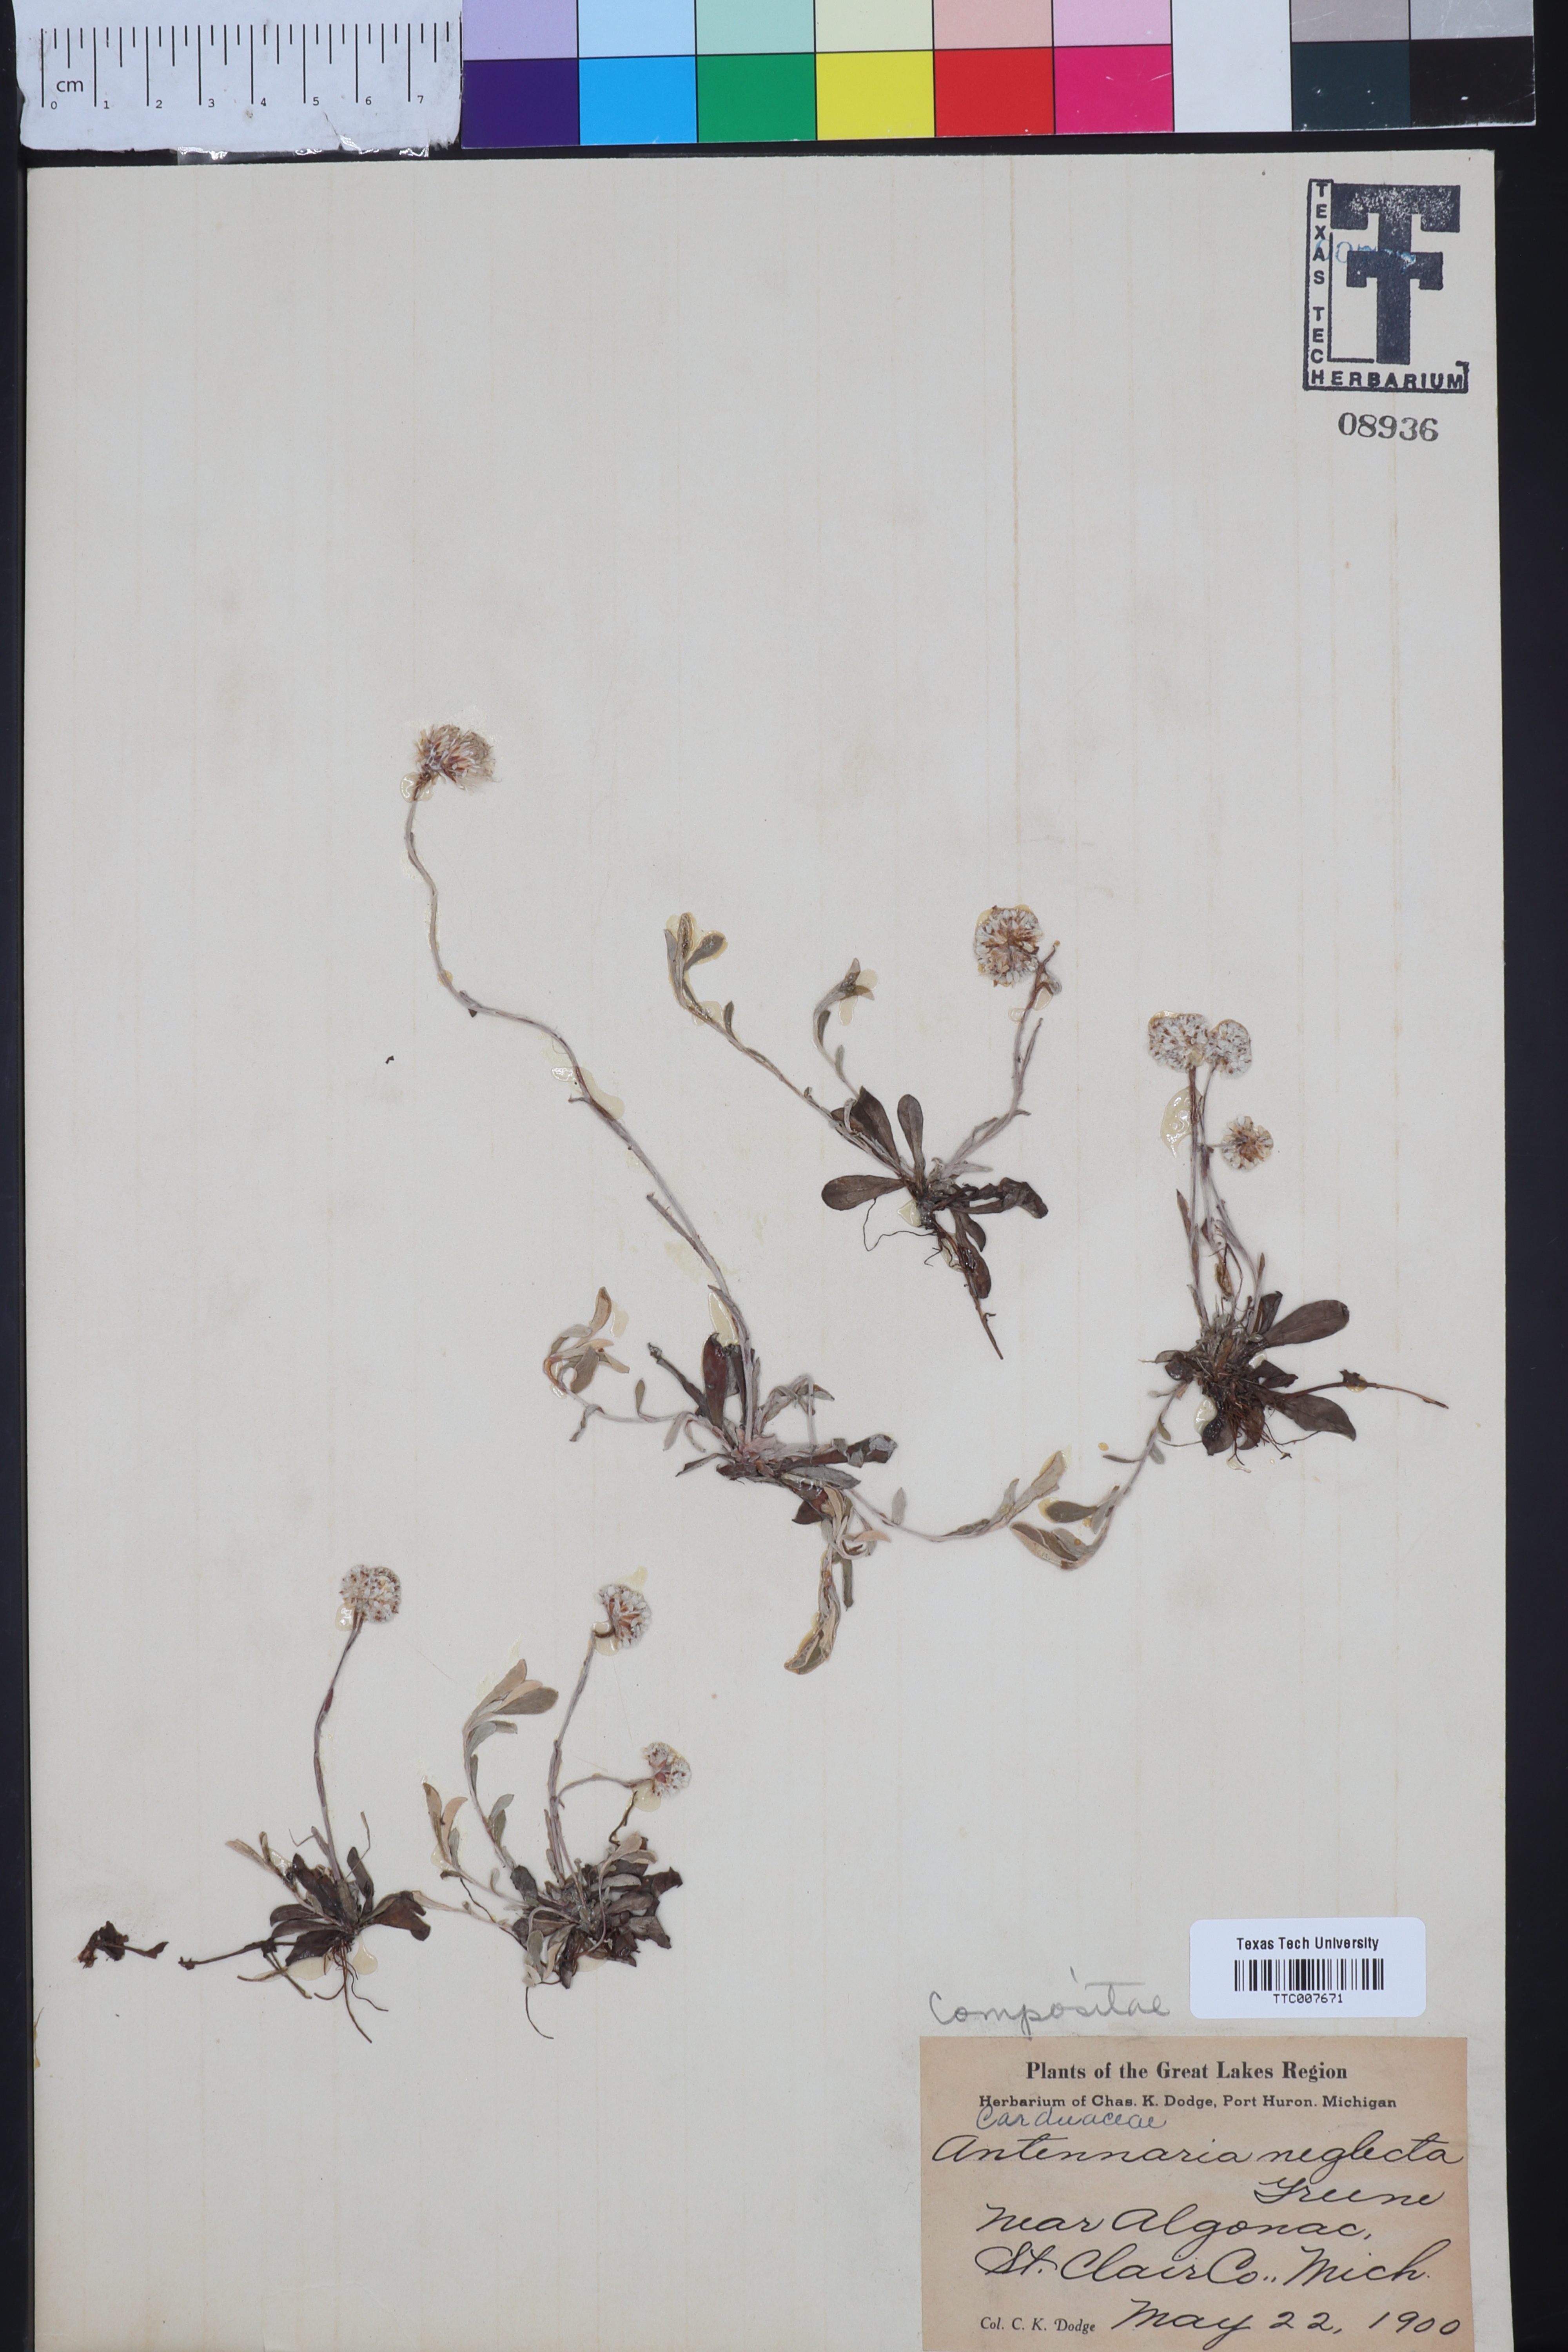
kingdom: Plantae
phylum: Tracheophyta
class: Magnoliopsida
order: Asterales
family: Asteraceae
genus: Antennaria
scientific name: Antennaria neglecta
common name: Field pussytoes
